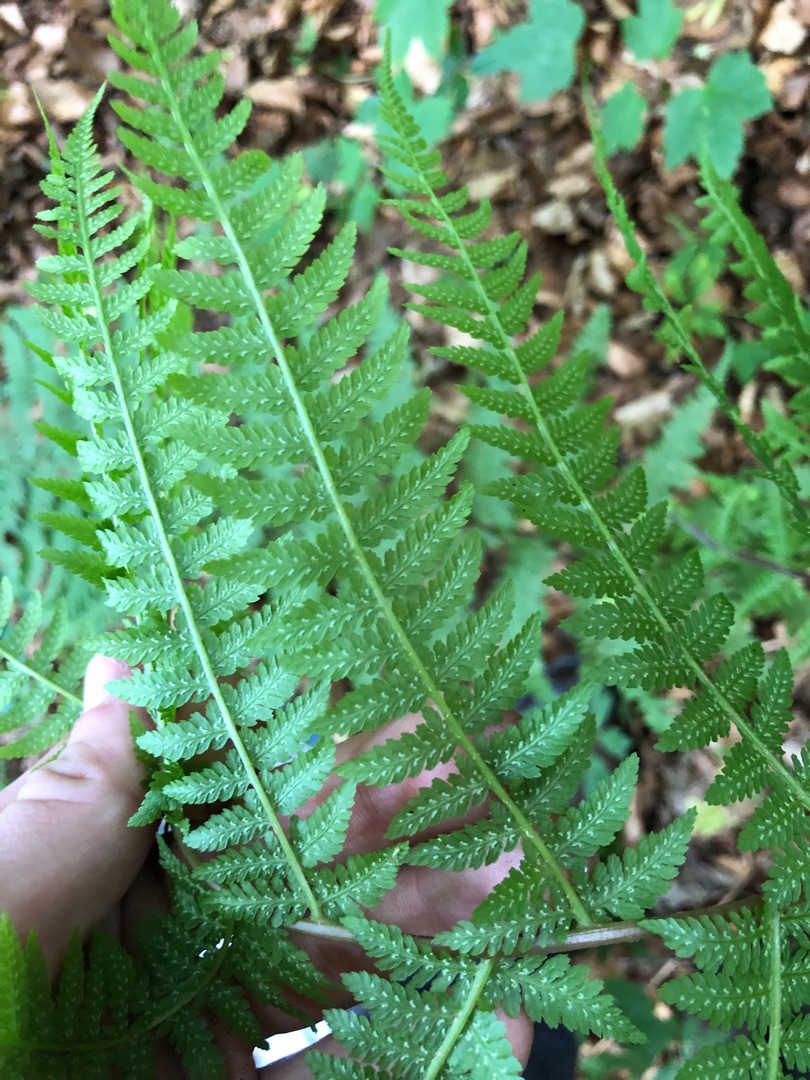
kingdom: Plantae
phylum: Tracheophyta
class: Polypodiopsida
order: Polypodiales
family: Athyriaceae
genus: Athyrium
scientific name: Athyrium filix-femina
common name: Fjerbregne
